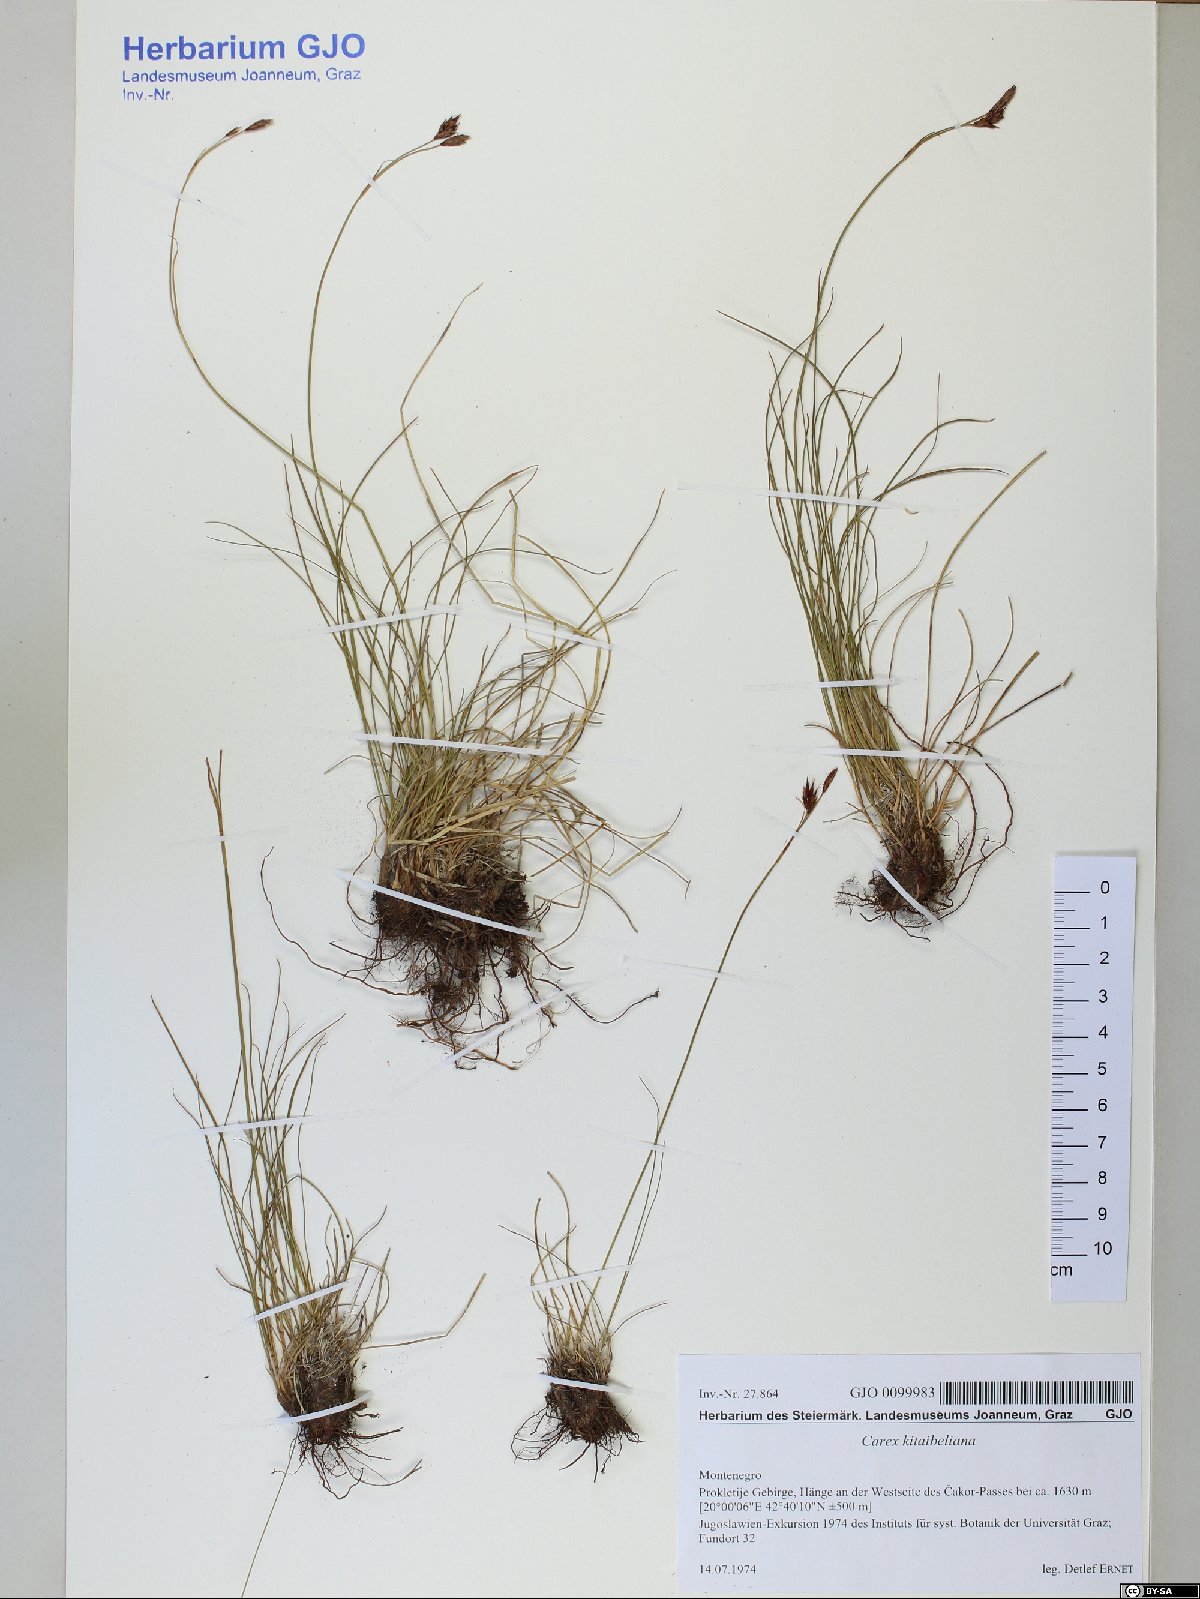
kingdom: Plantae
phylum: Tracheophyta
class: Liliopsida
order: Poales
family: Cyperaceae
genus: Carex
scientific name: Carex kitaibeliana
